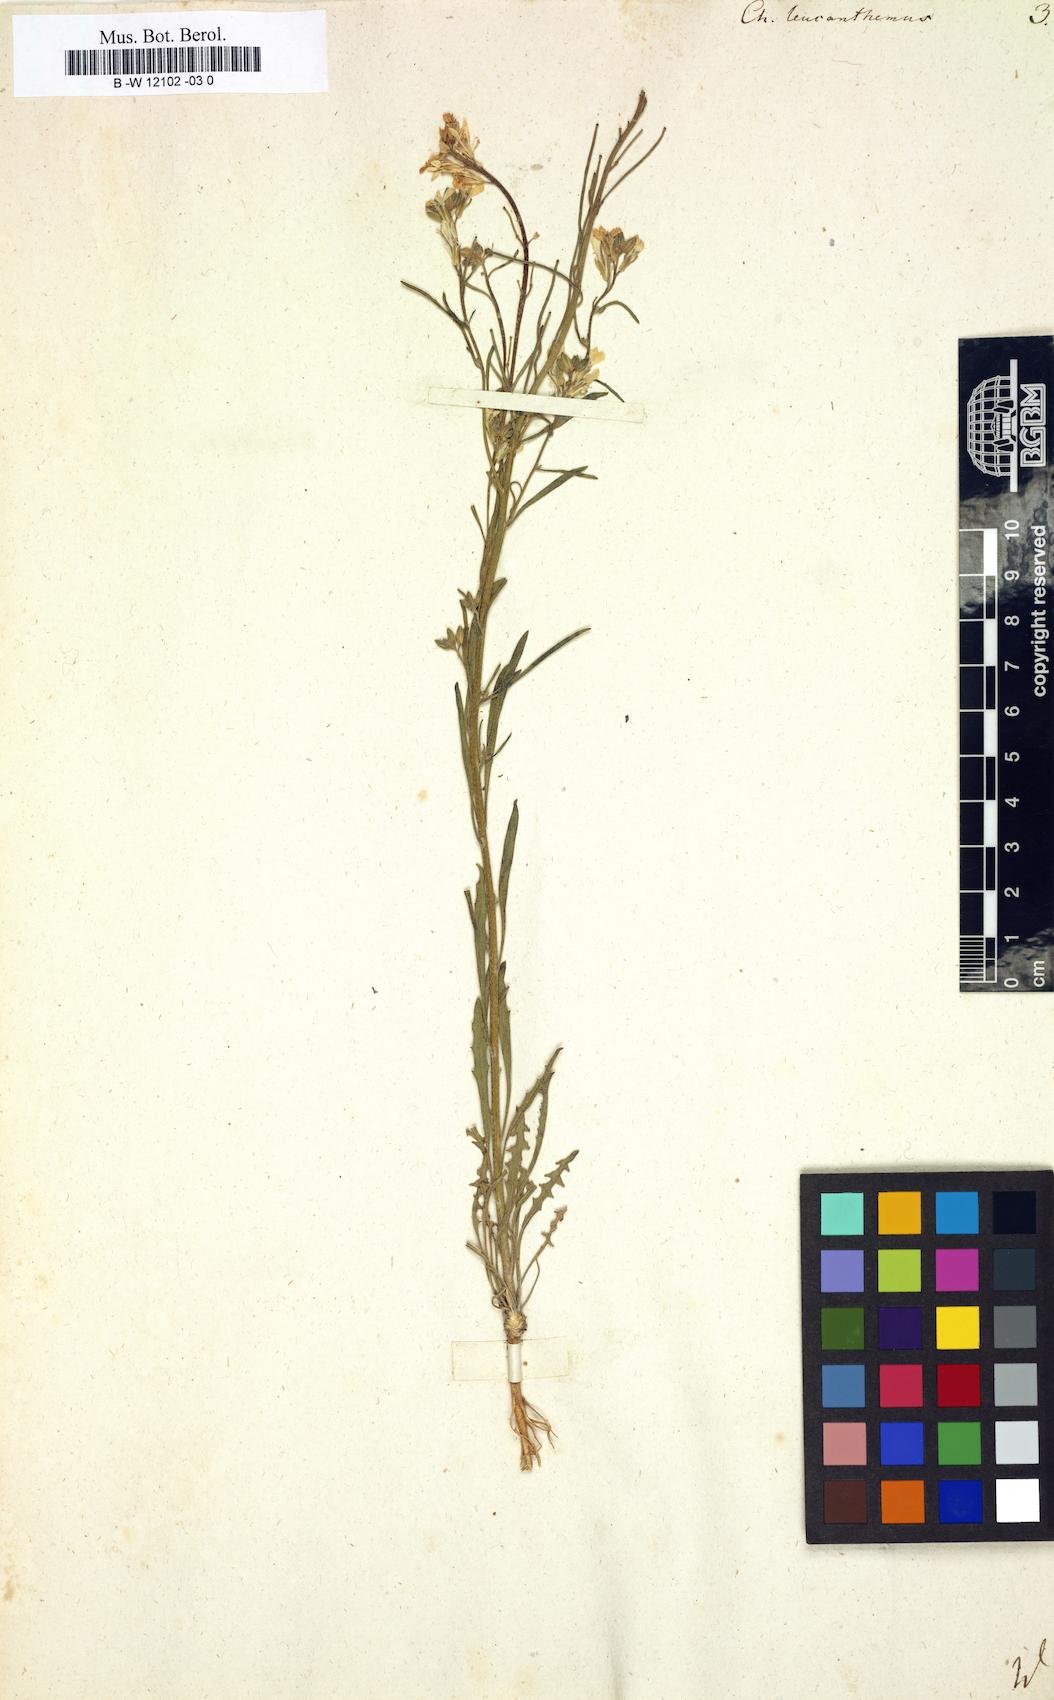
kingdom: Plantae
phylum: Tracheophyta
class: Magnoliopsida
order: Brassicales
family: Brassicaceae
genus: Erysimum
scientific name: Erysimum leucanthemum
